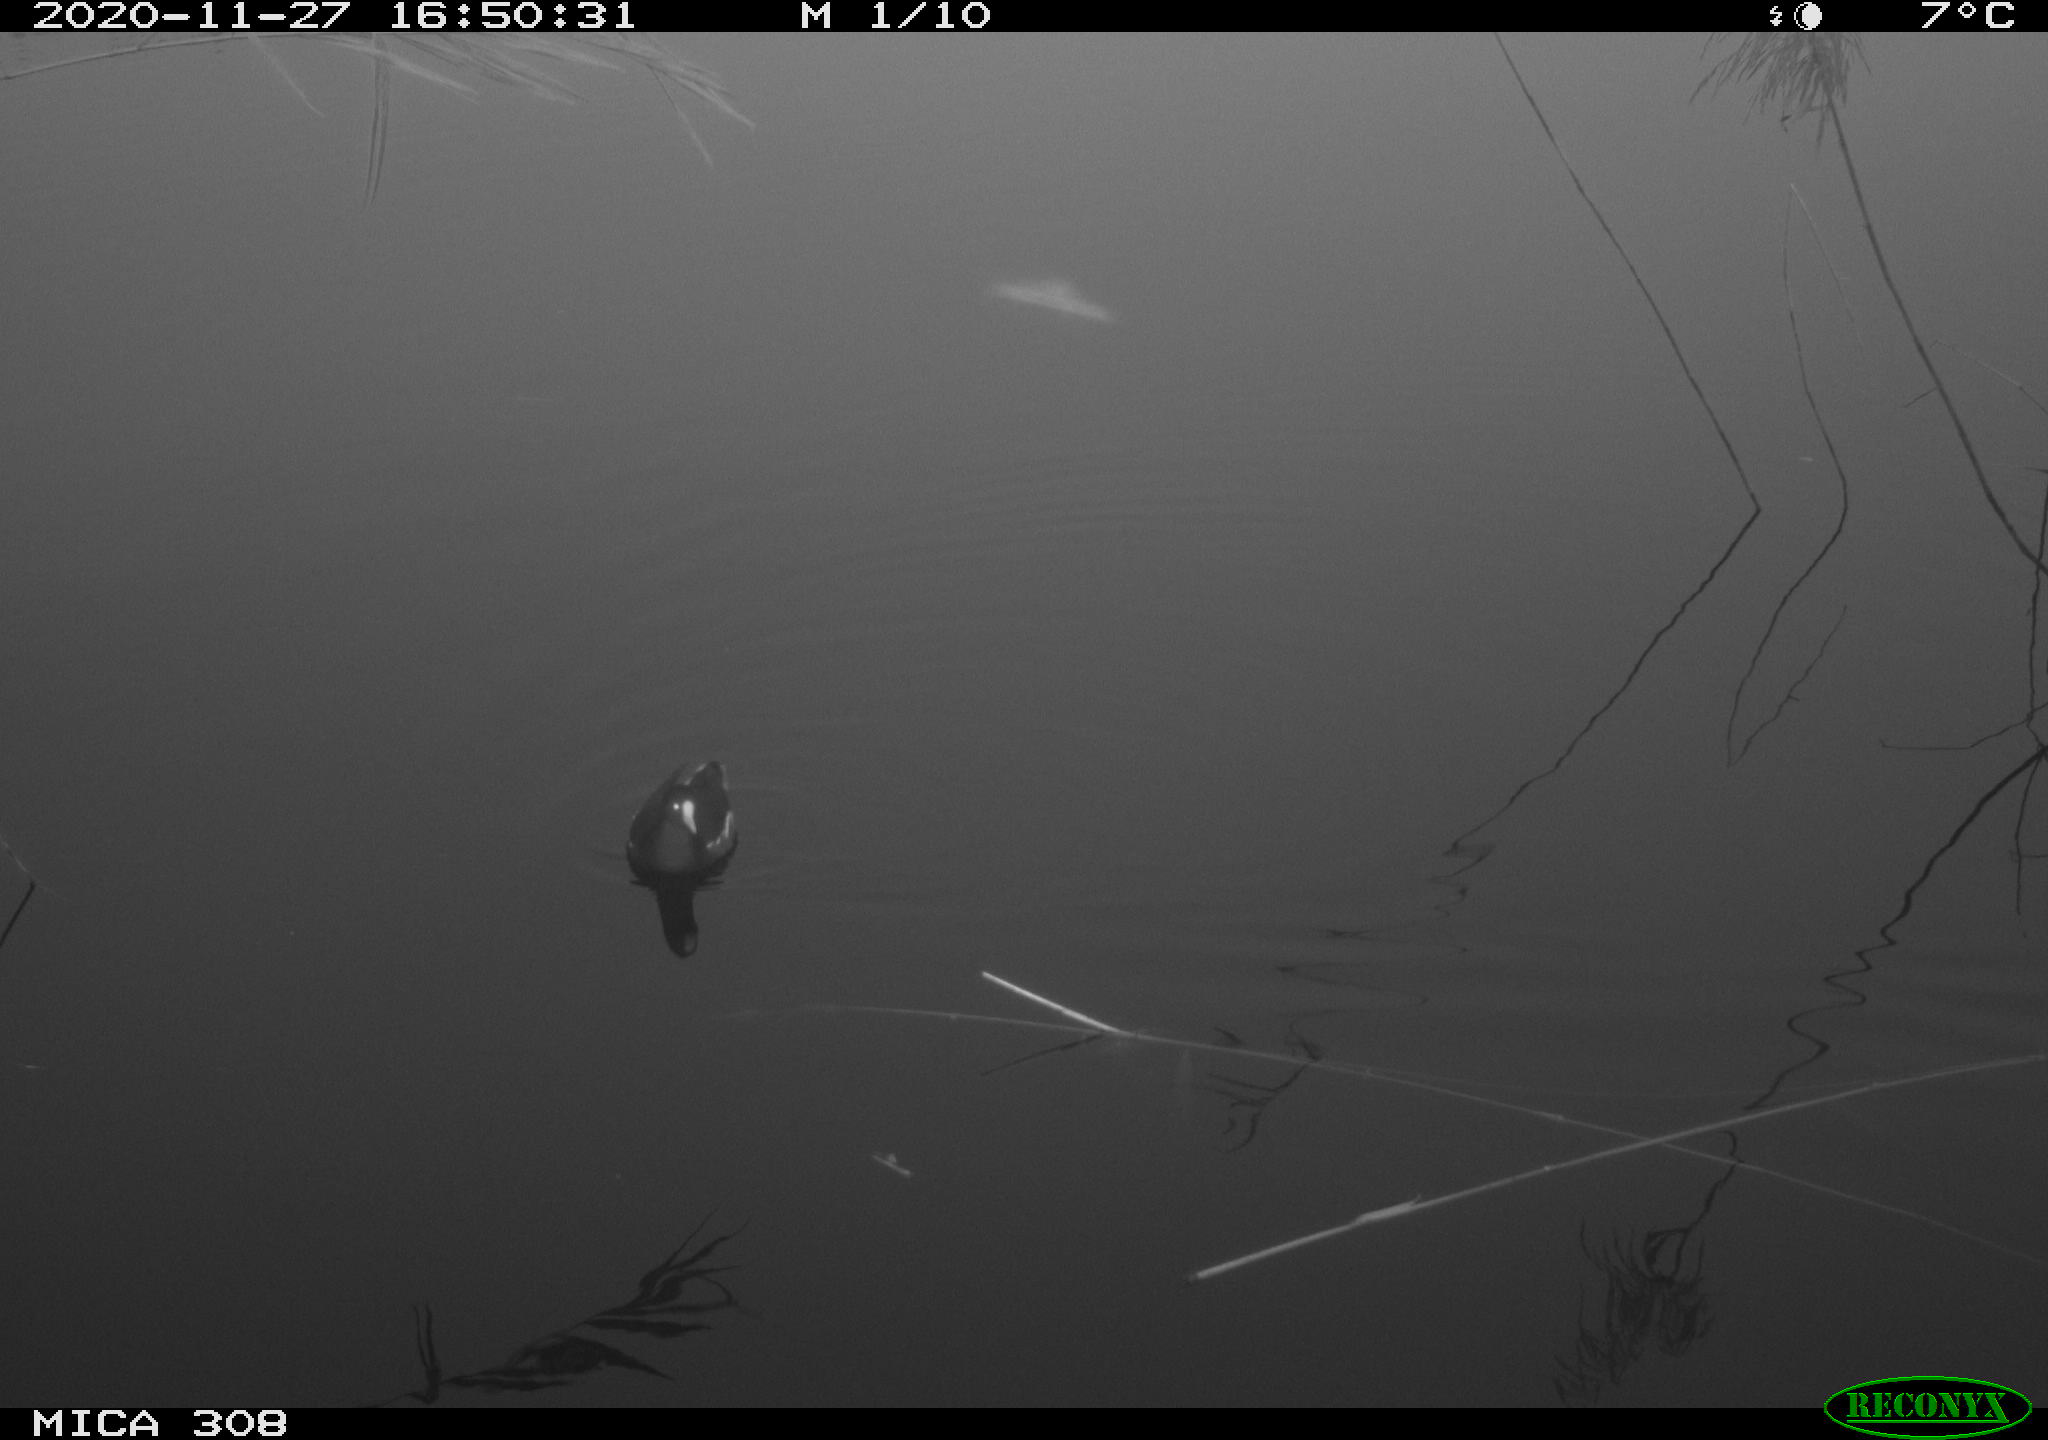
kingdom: Animalia
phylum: Chordata
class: Aves
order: Gruiformes
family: Rallidae
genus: Gallinula
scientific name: Gallinula chloropus
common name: Common moorhen
